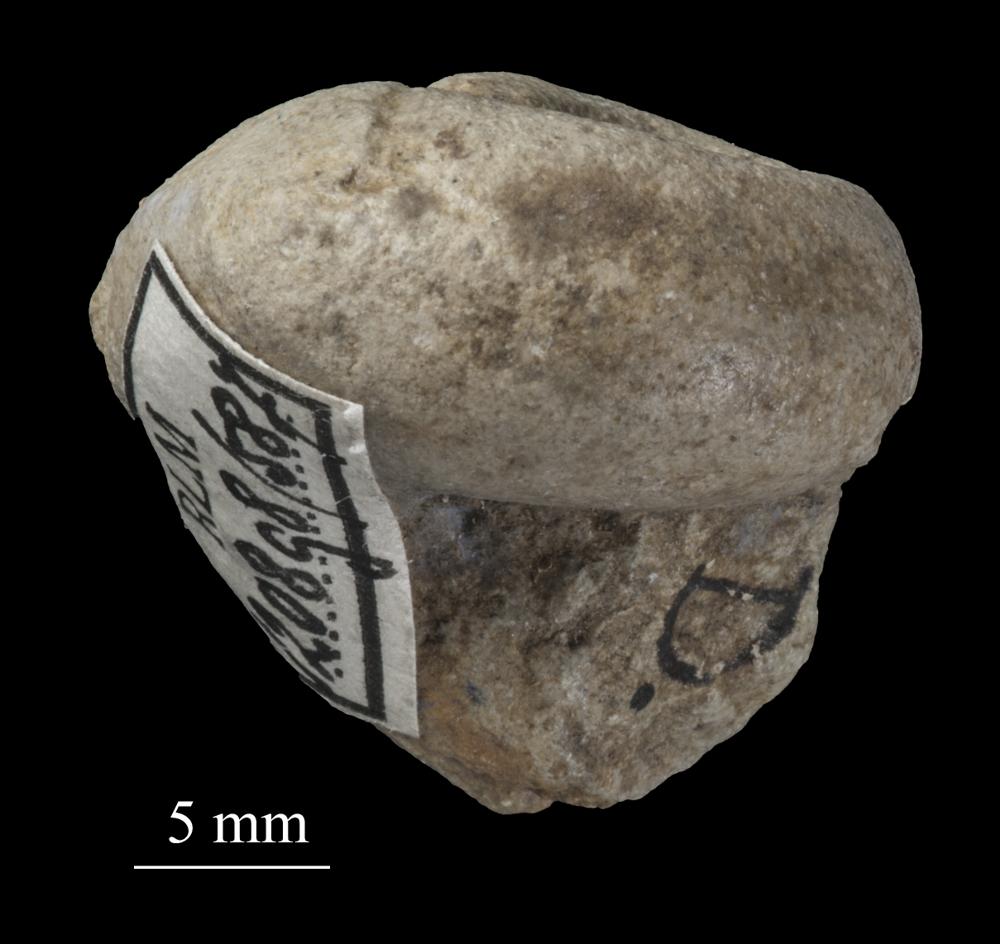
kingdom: Animalia
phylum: Mollusca
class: Gastropoda
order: Pleurotomariida
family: Phymatopleuridae
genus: Worthenia
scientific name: Worthenia
